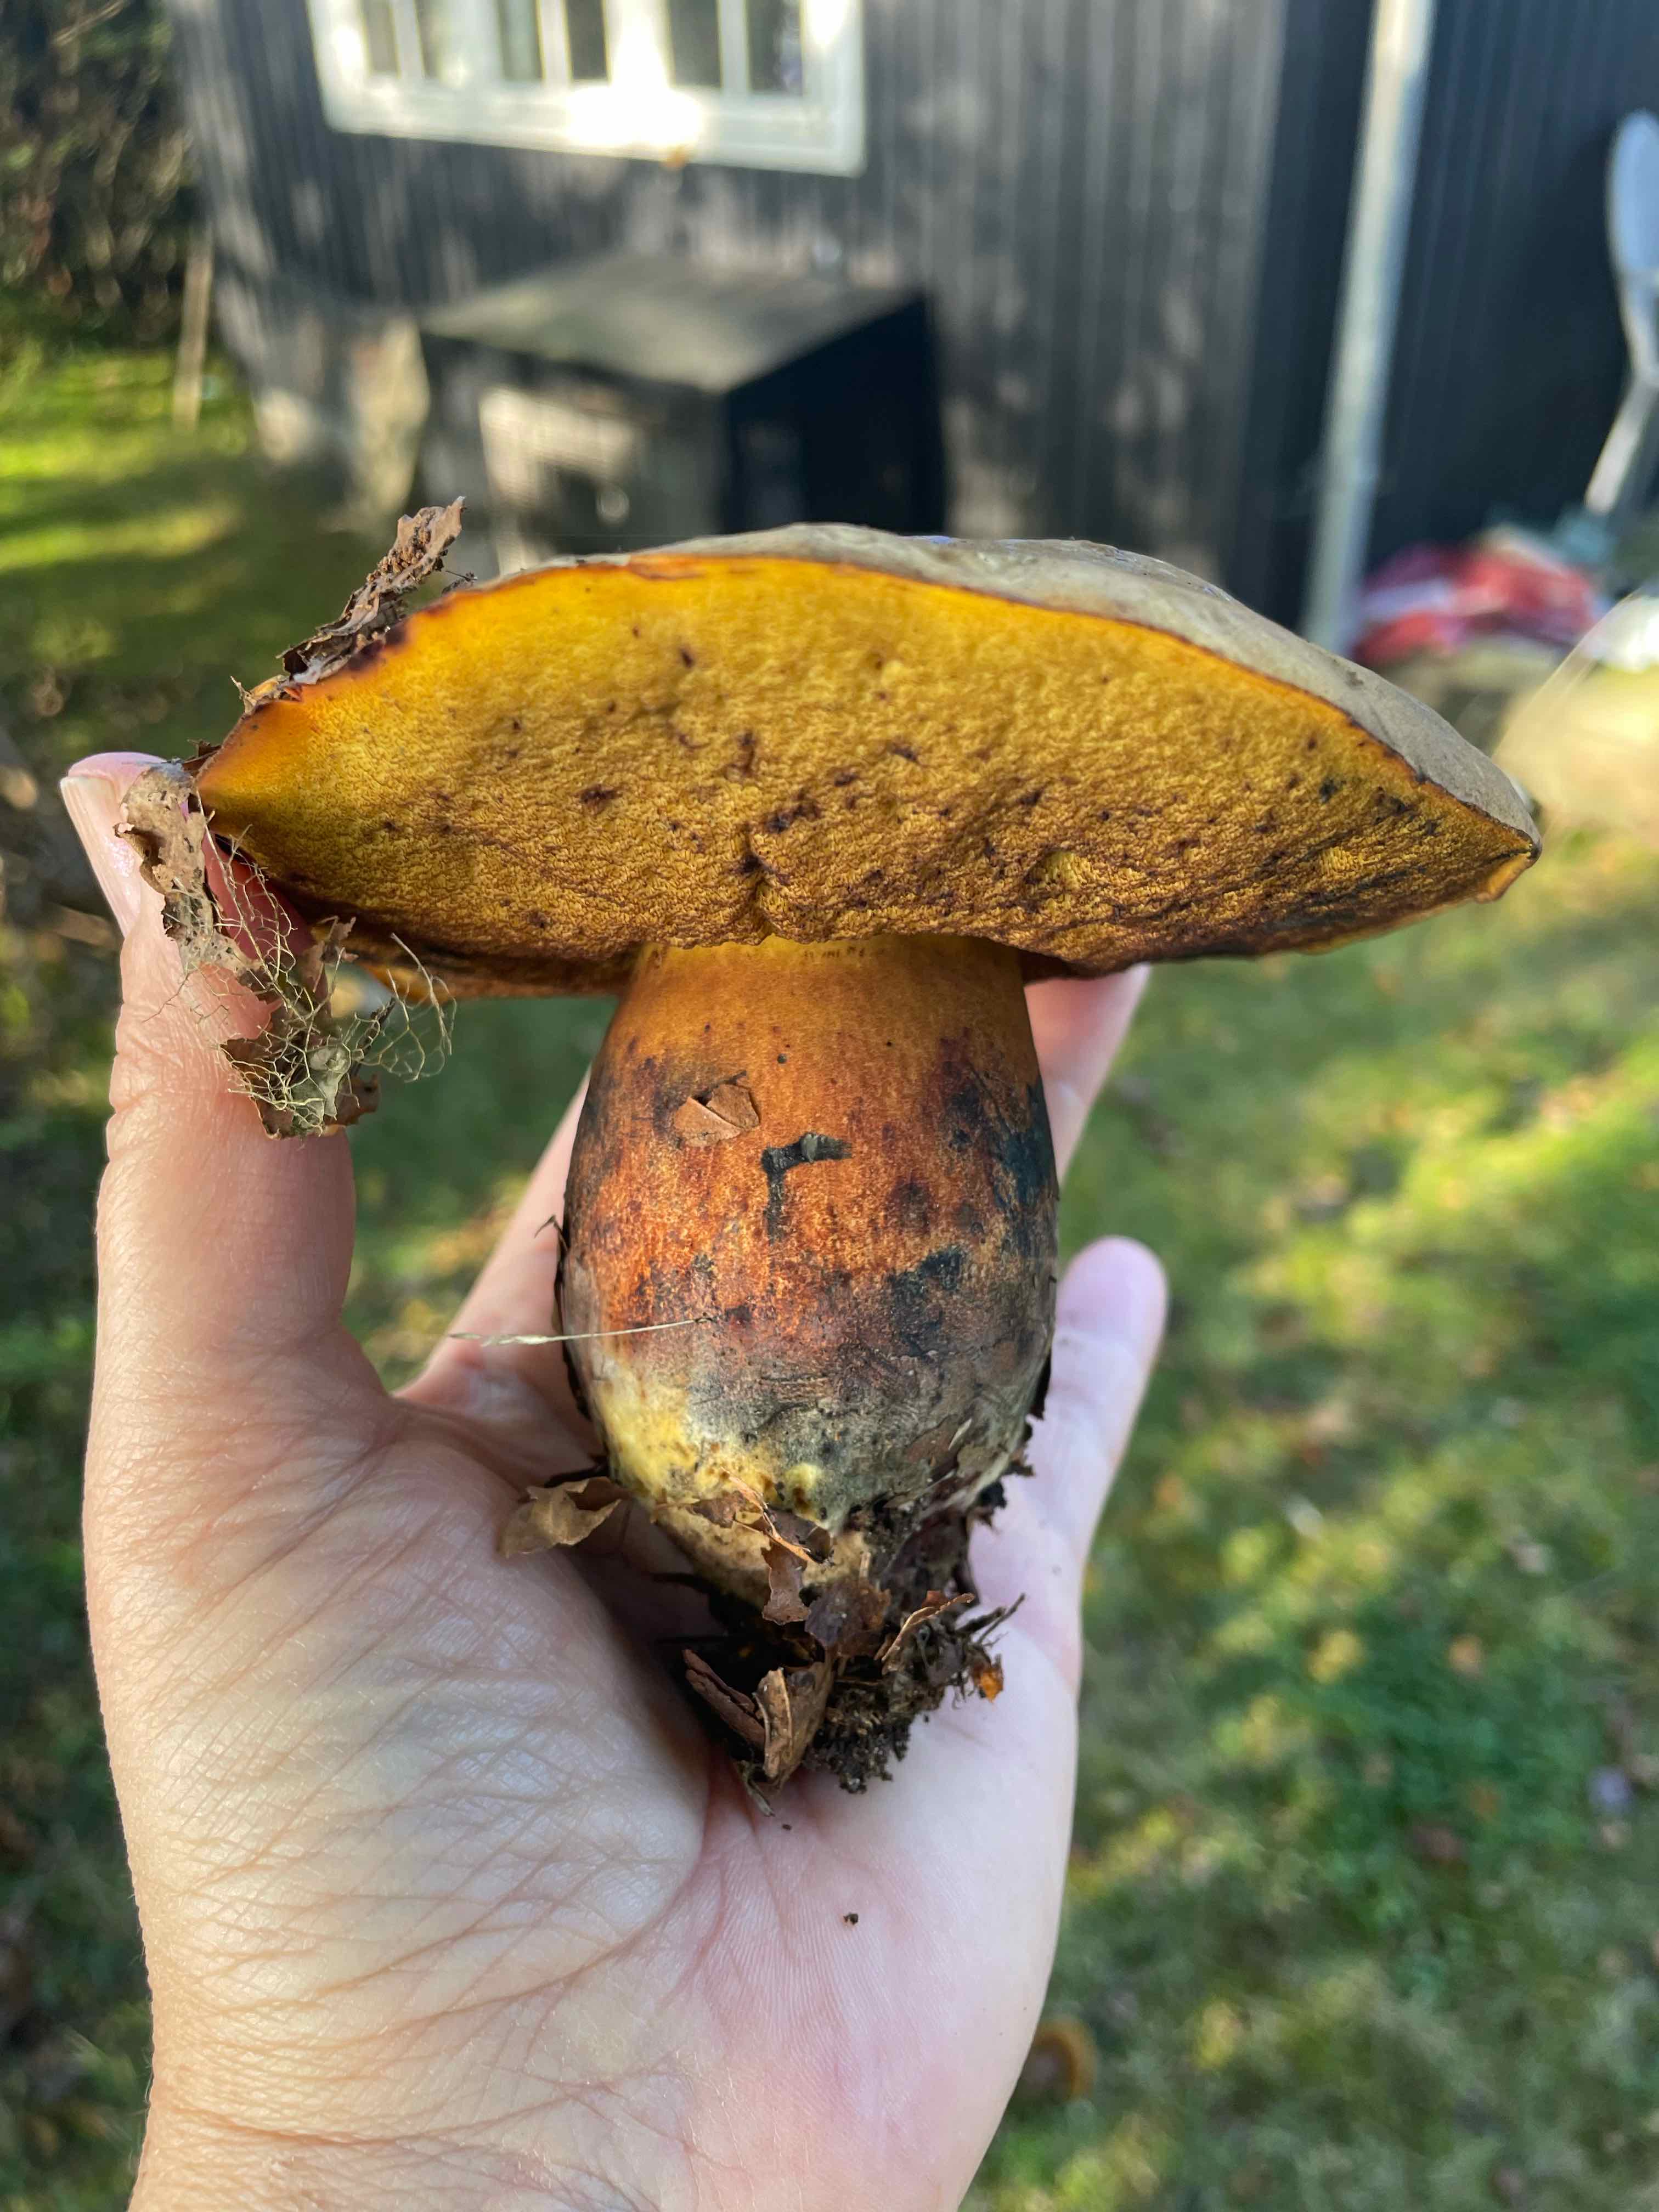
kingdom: Fungi
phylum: Basidiomycota
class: Agaricomycetes
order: Boletales
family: Boletaceae
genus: Neoboletus
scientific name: Neoboletus erythropus
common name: punktstokket indigorørhat
